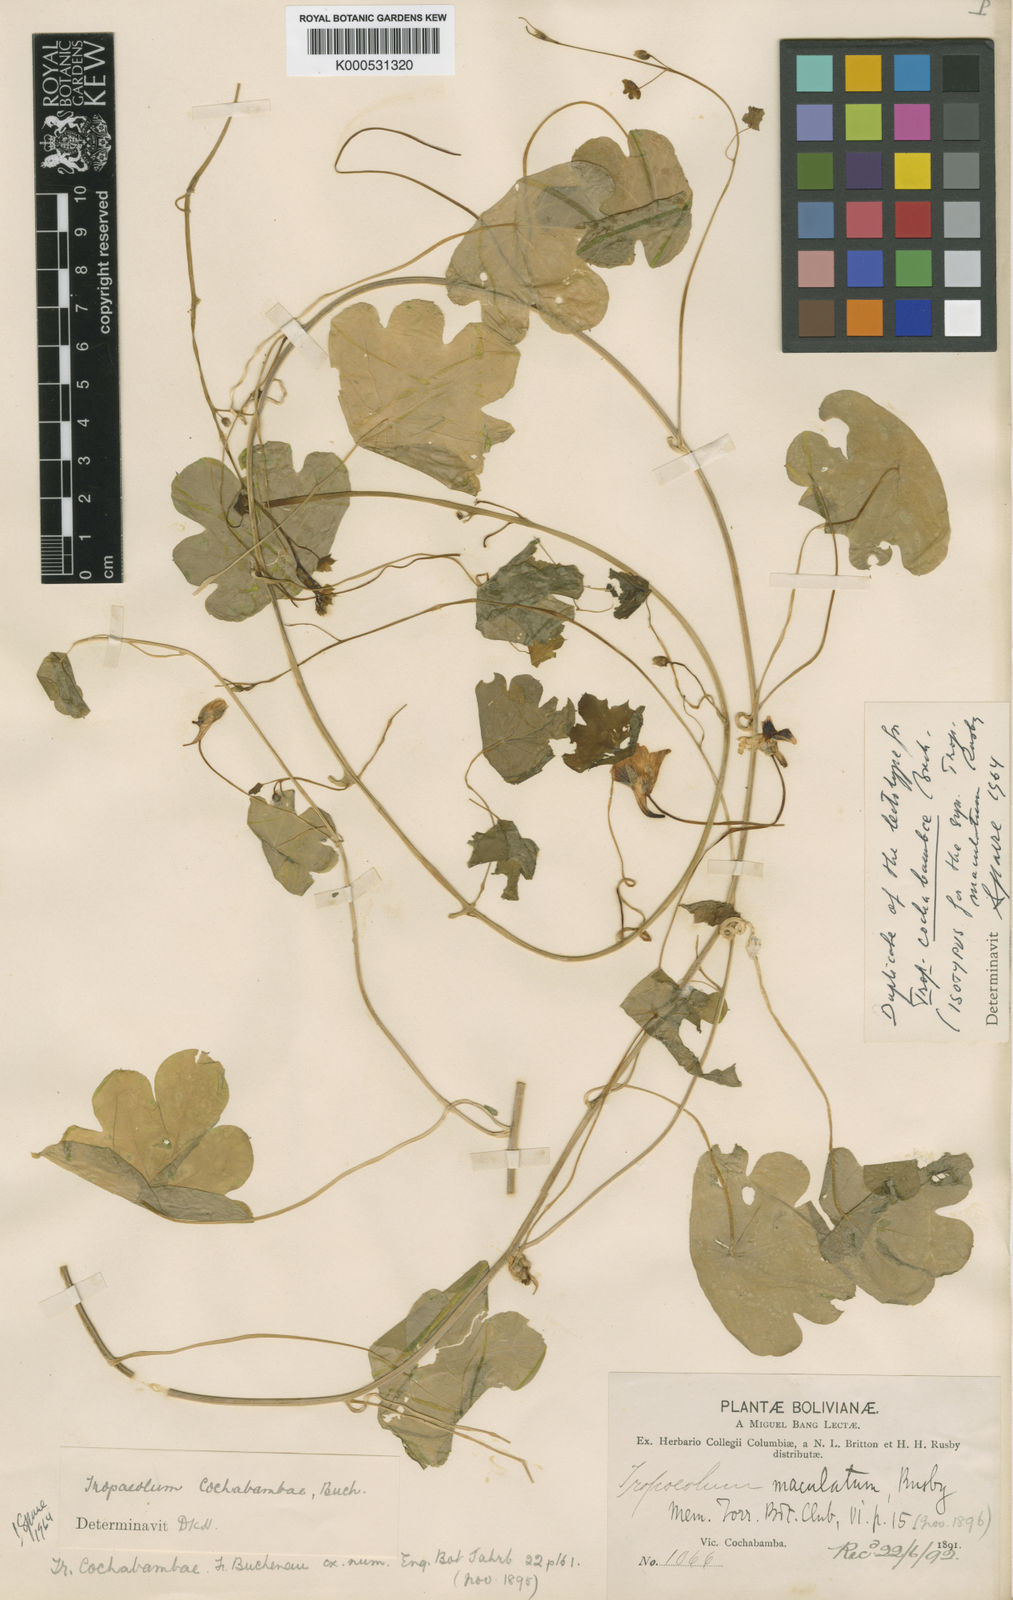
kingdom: Plantae
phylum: Tracheophyta
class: Magnoliopsida
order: Brassicales
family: Tropaeolaceae
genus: Tropaeolum
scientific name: Tropaeolum cochabambae
